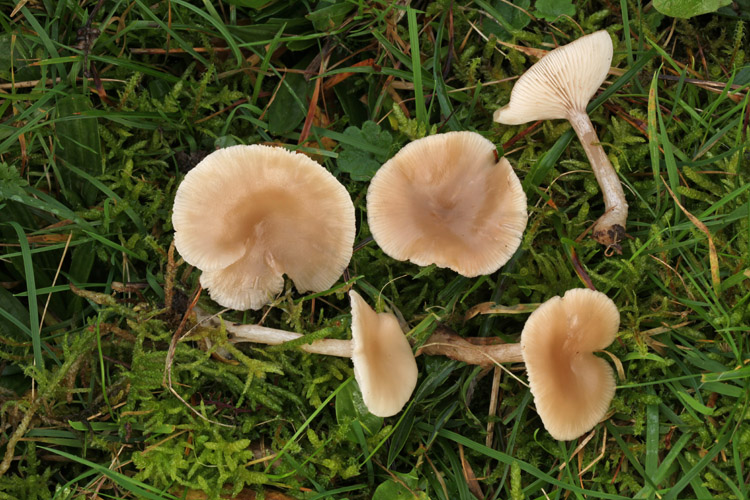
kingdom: Fungi
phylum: Basidiomycota
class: Agaricomycetes
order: Agaricales
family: Tricholomataceae
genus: Clitocybe
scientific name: Clitocybe fragrans
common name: vellugtende tragthat
